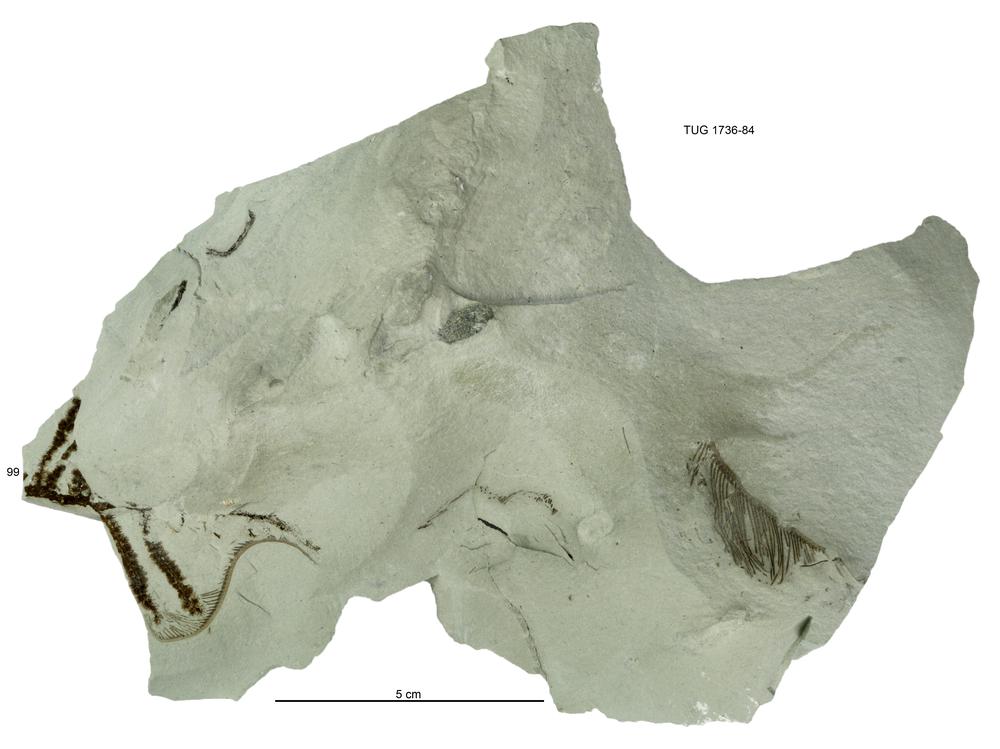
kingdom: Animalia
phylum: Echinodermata
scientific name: Echinodermata
